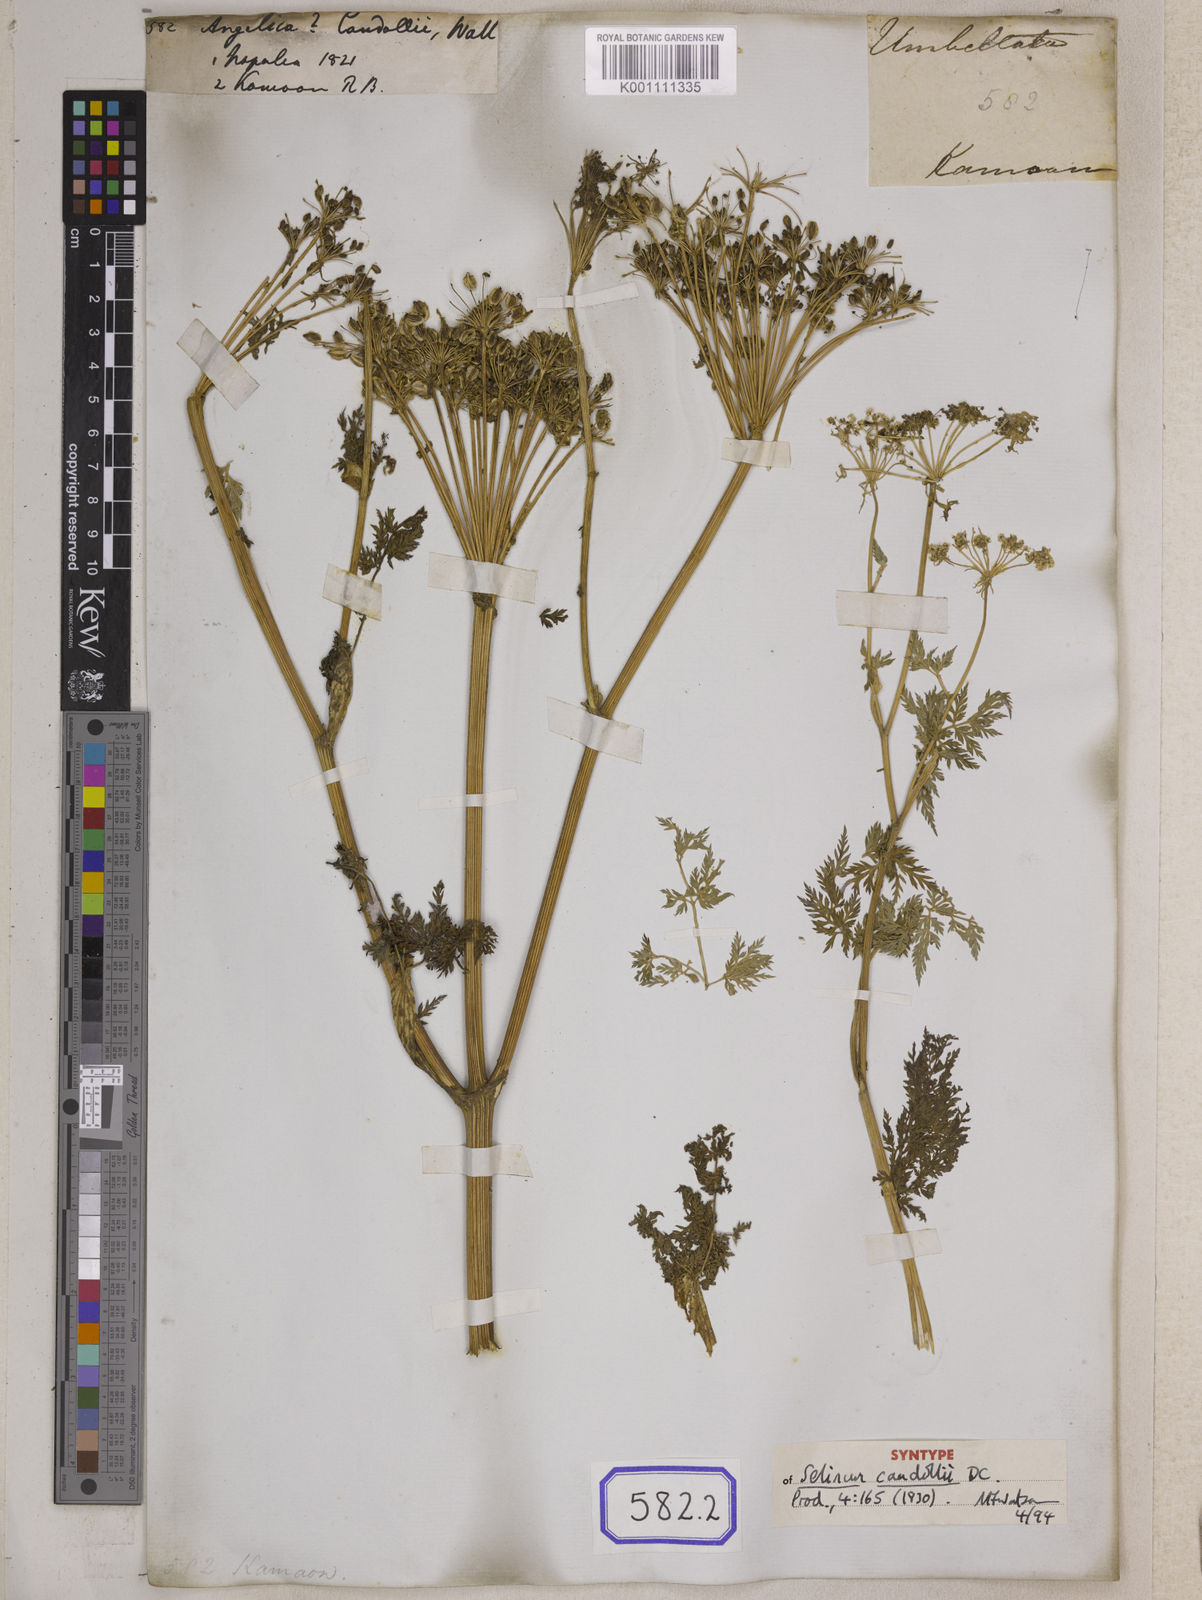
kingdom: Plantae
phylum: Tracheophyta
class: Magnoliopsida
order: Apiales
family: Apiaceae
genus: Oreocome
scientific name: Oreocome candollei
